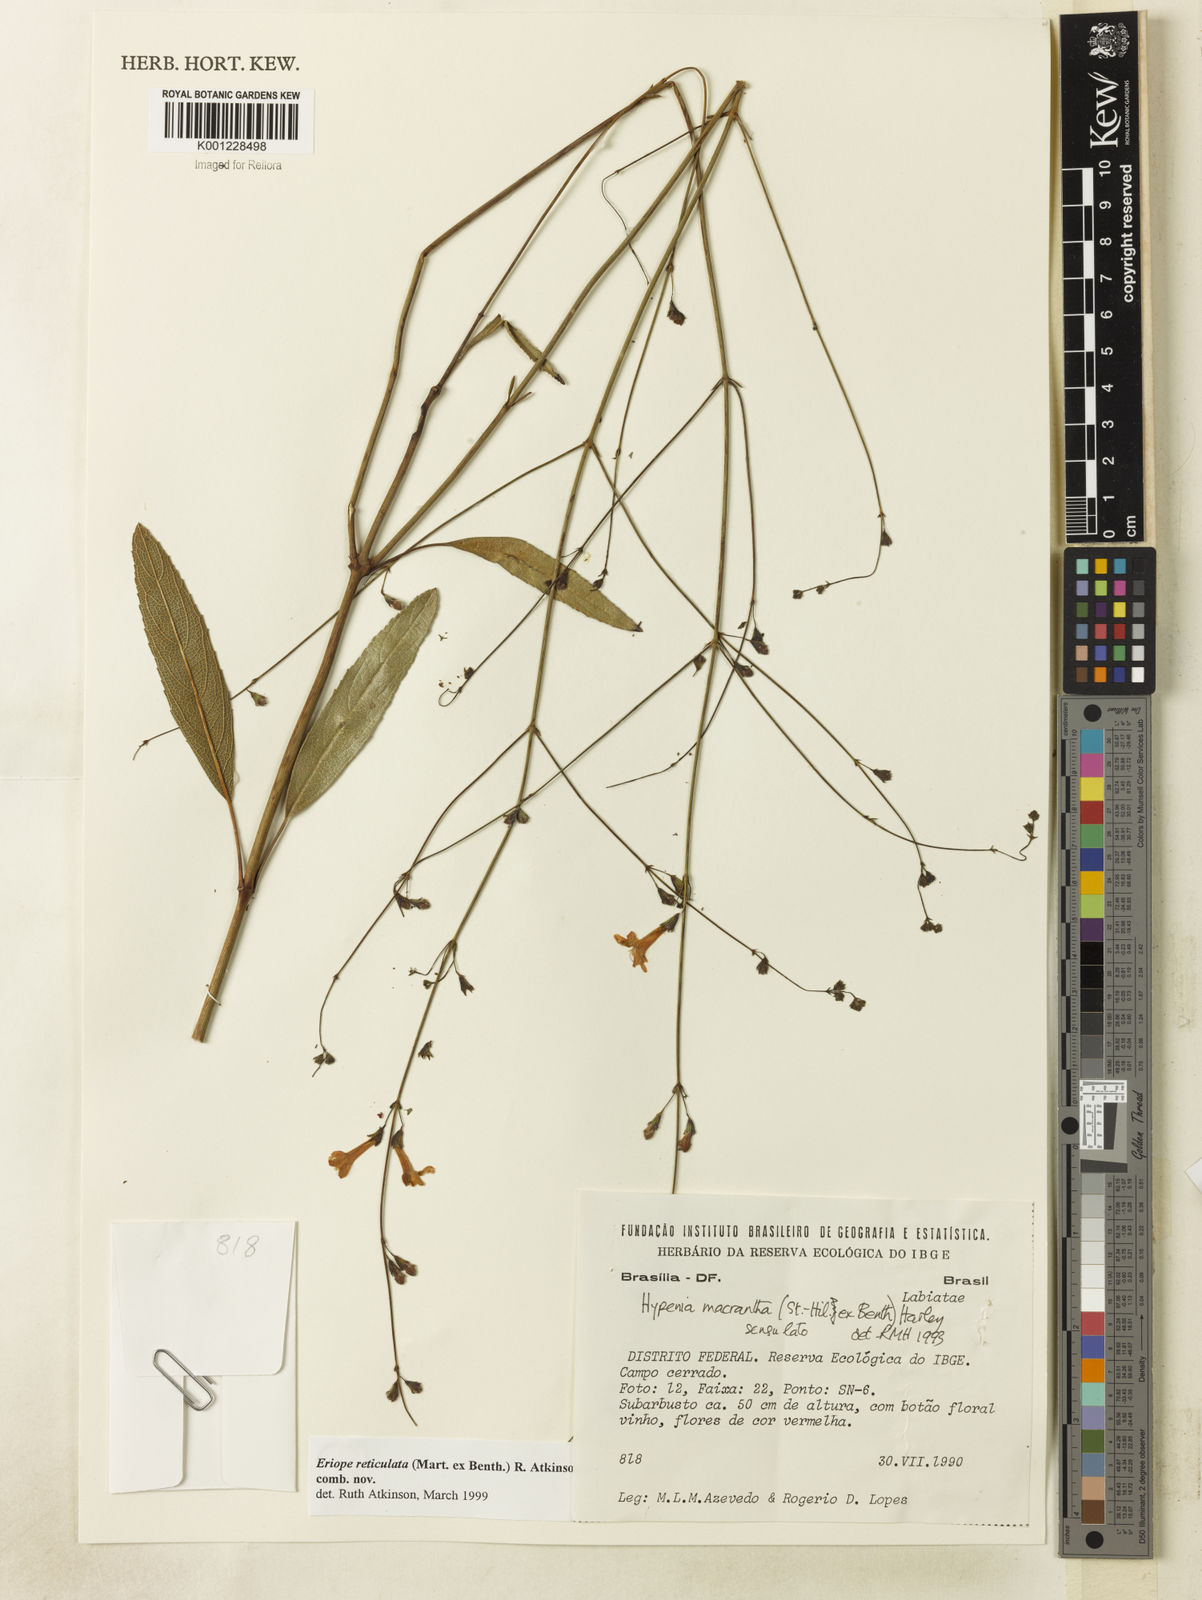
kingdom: Plantae
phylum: Tracheophyta
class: Magnoliopsida
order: Lamiales
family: Lamiaceae
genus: Hypenia
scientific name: Hypenia reticulata
